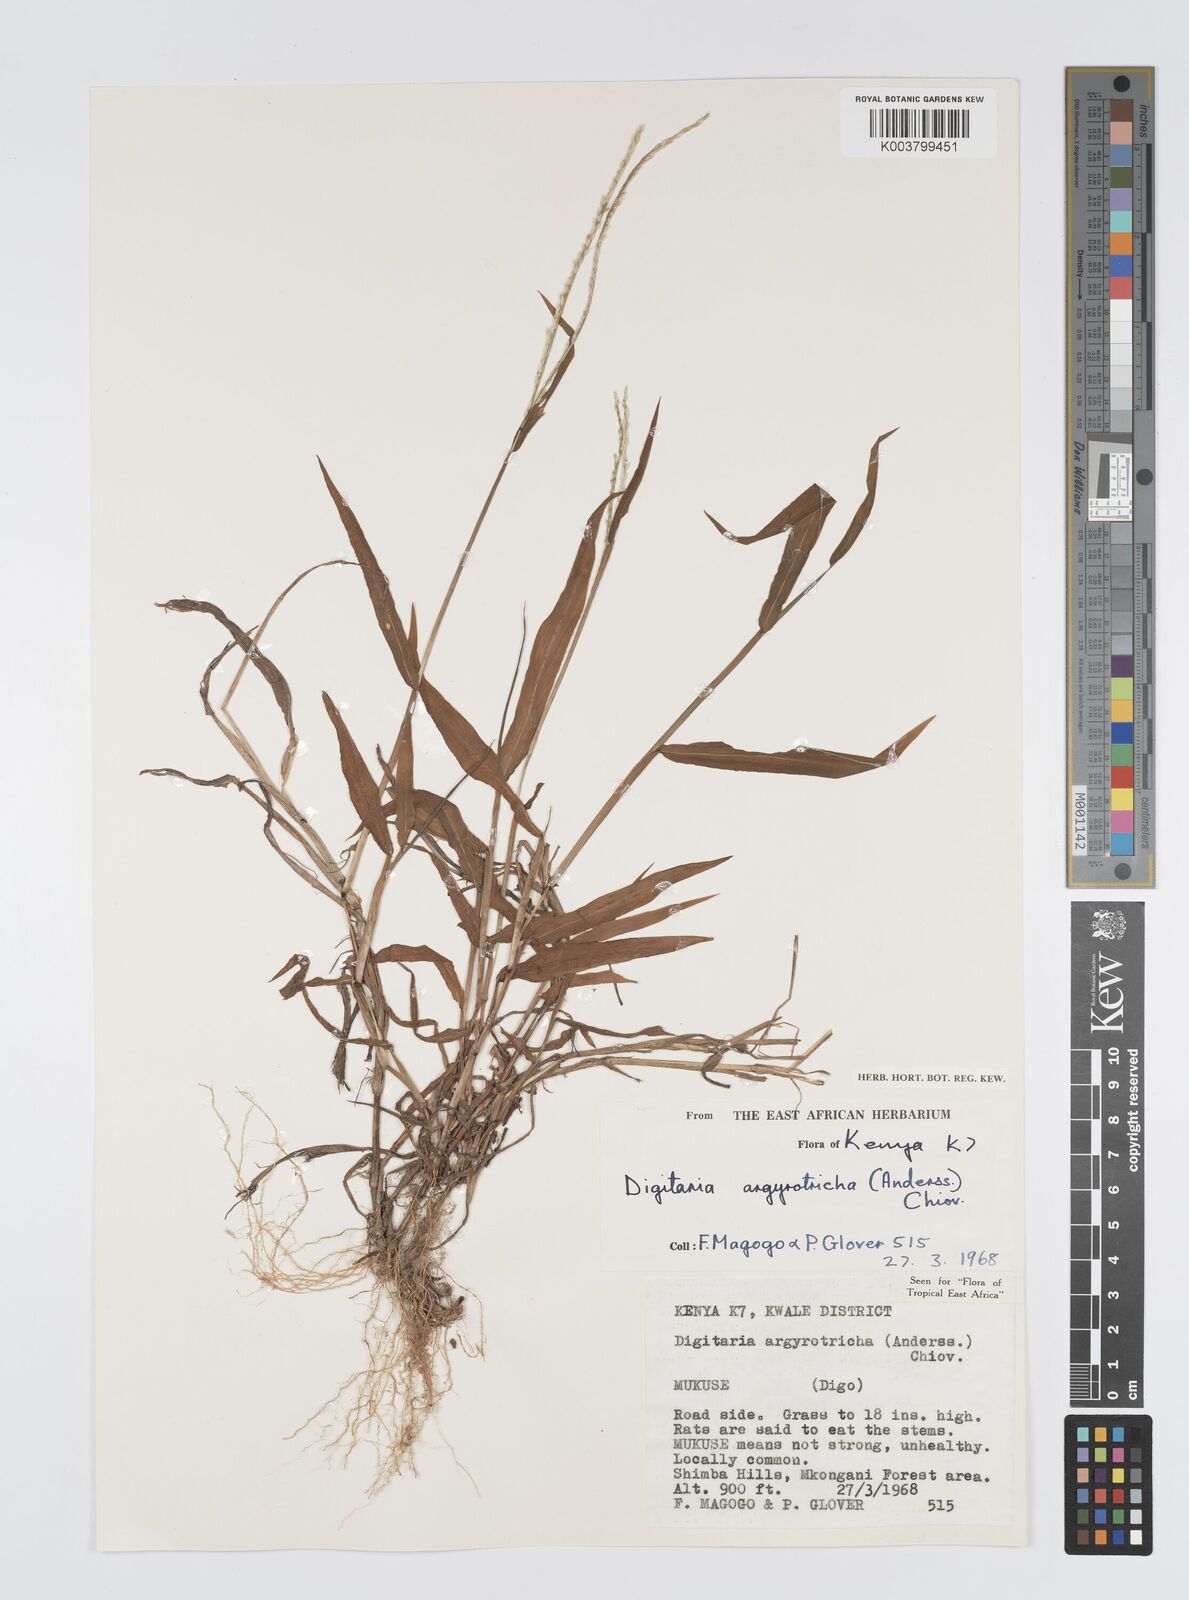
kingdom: Plantae
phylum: Tracheophyta
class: Liliopsida
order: Poales
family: Poaceae
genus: Digitaria
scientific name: Digitaria argyrotricha
